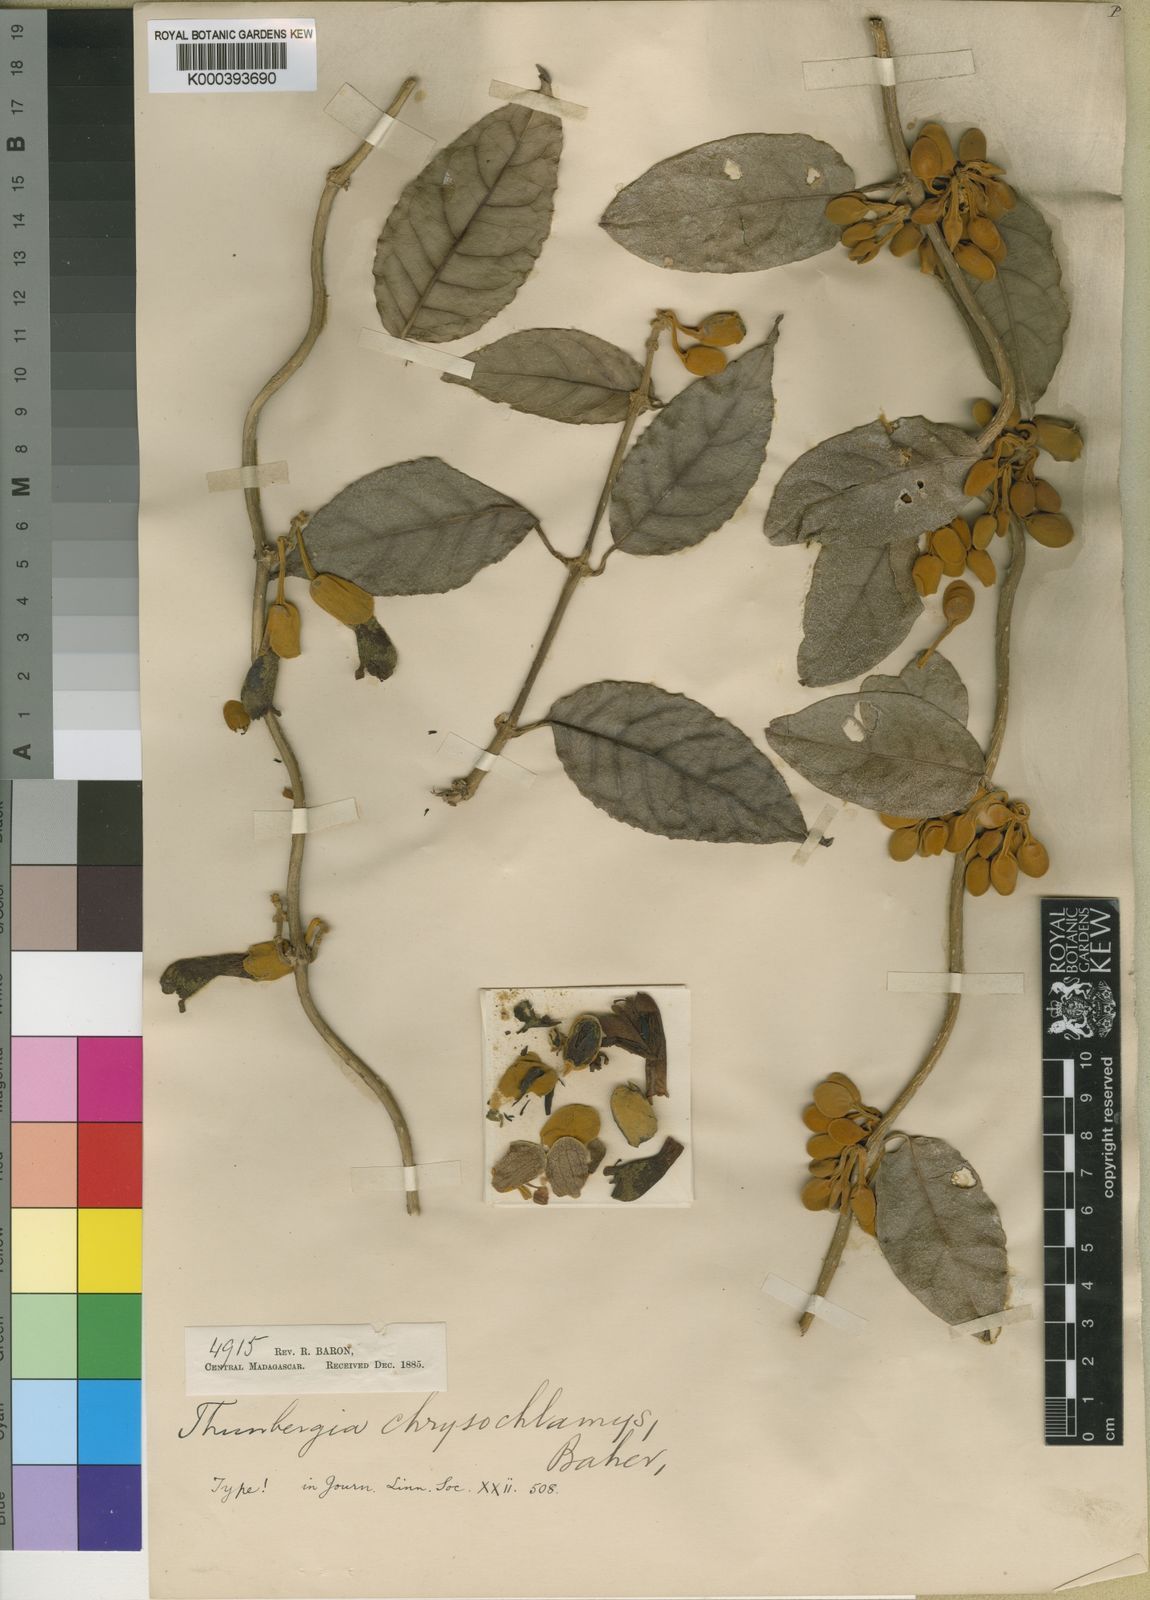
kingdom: Plantae
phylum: Tracheophyta
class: Magnoliopsida
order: Lamiales
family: Acanthaceae
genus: Pseudocalyx
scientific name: Pseudocalyx saccatus
